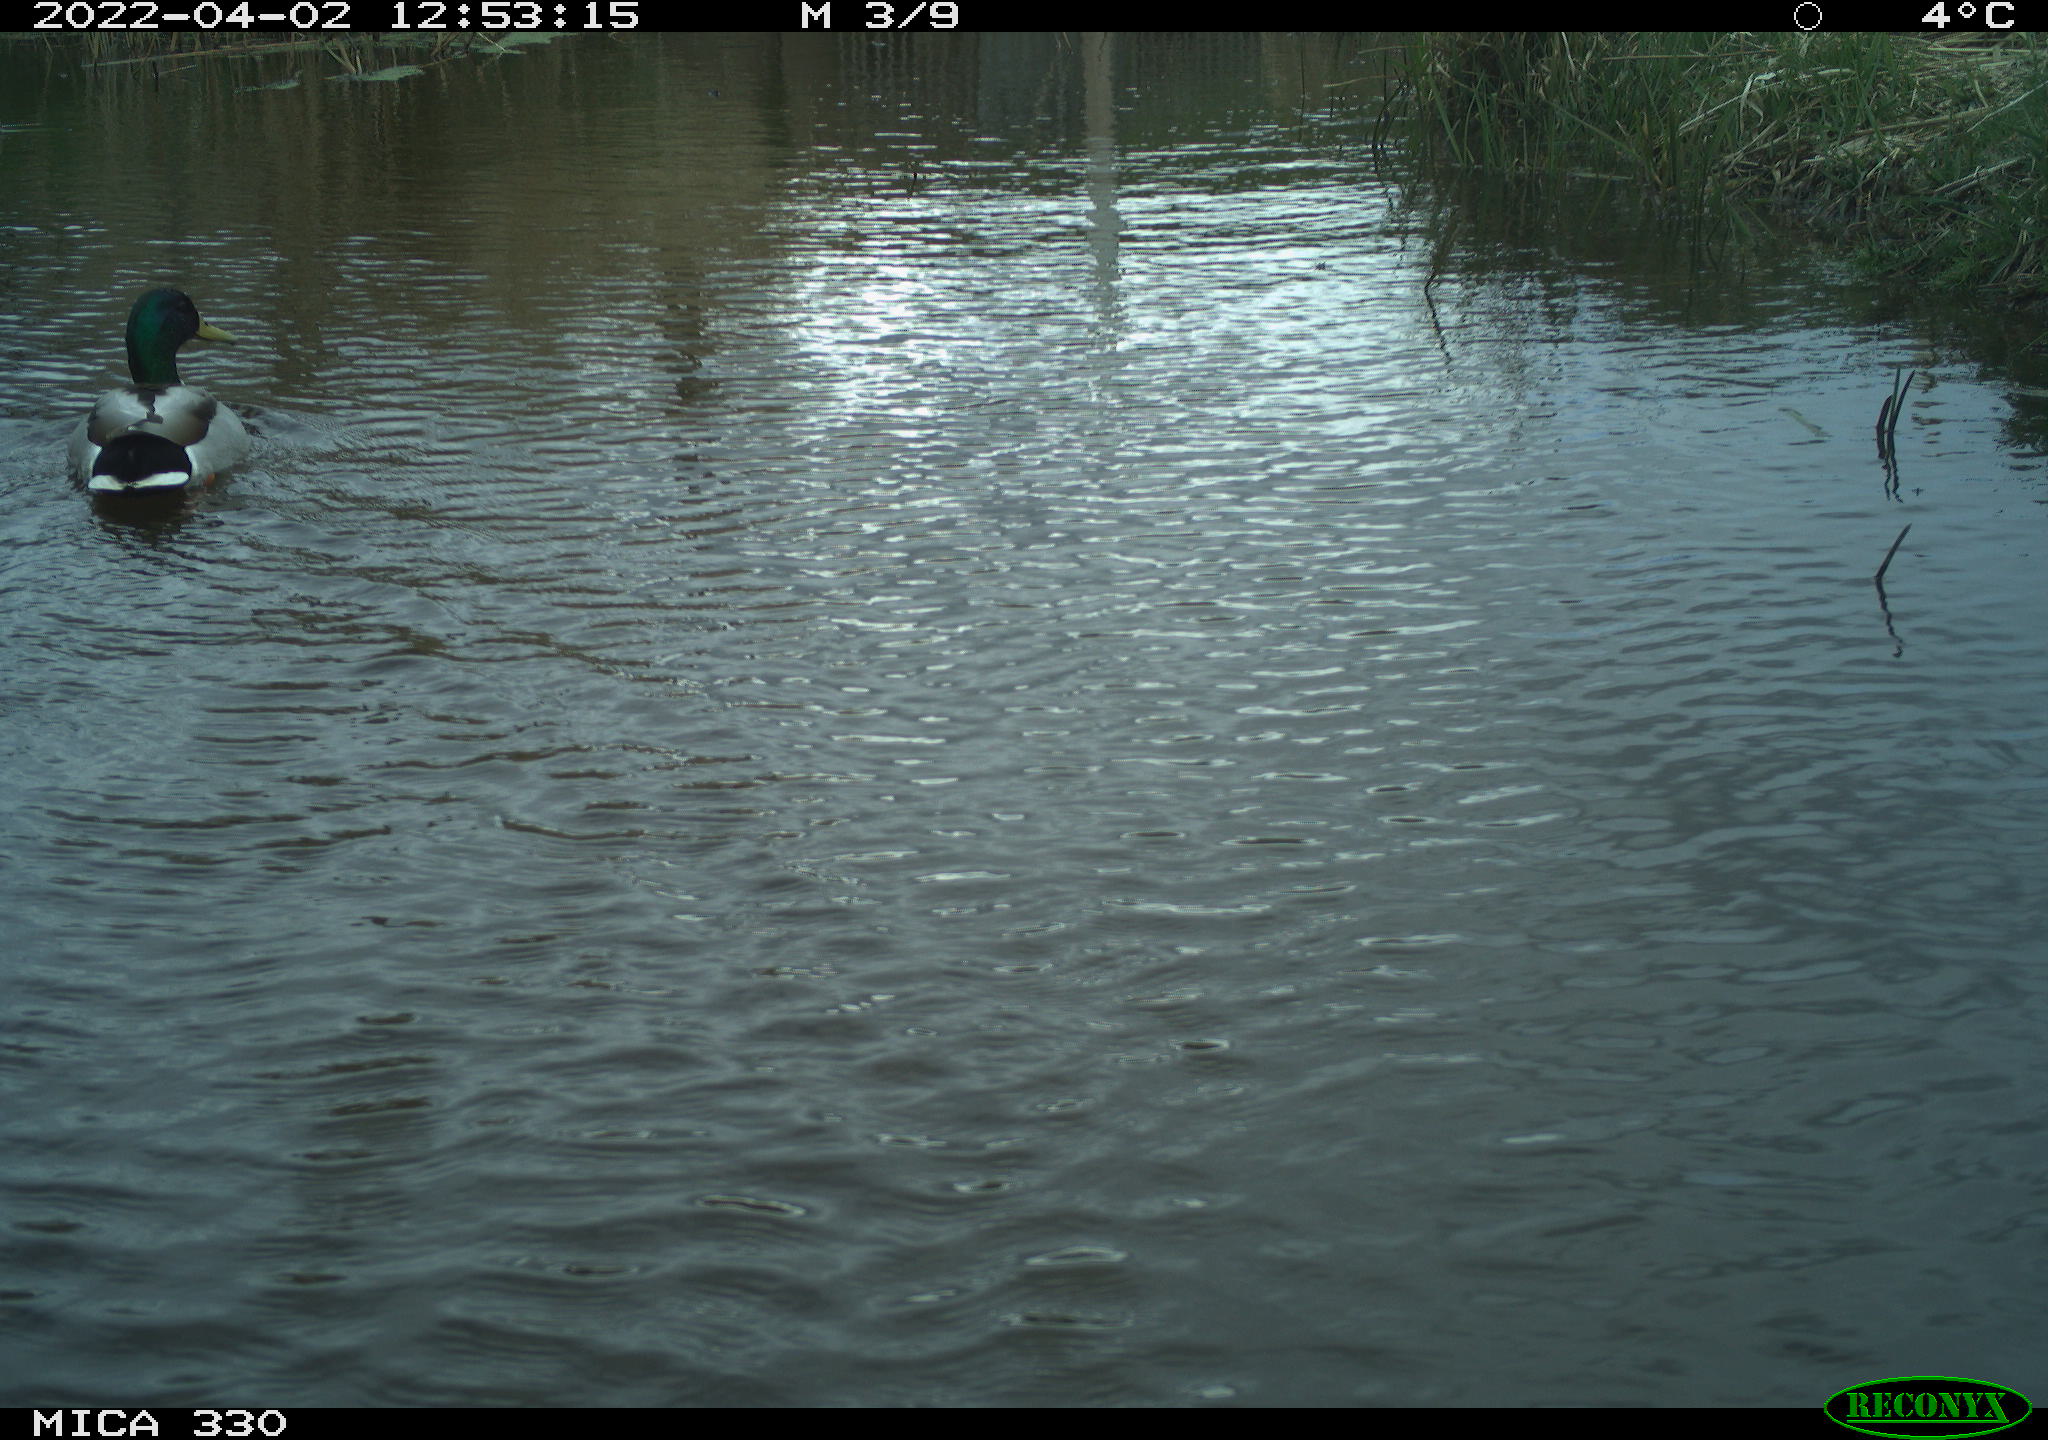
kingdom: Animalia
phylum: Chordata
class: Aves
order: Anseriformes
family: Anatidae
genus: Anas
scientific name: Anas platyrhynchos
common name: Mallard
